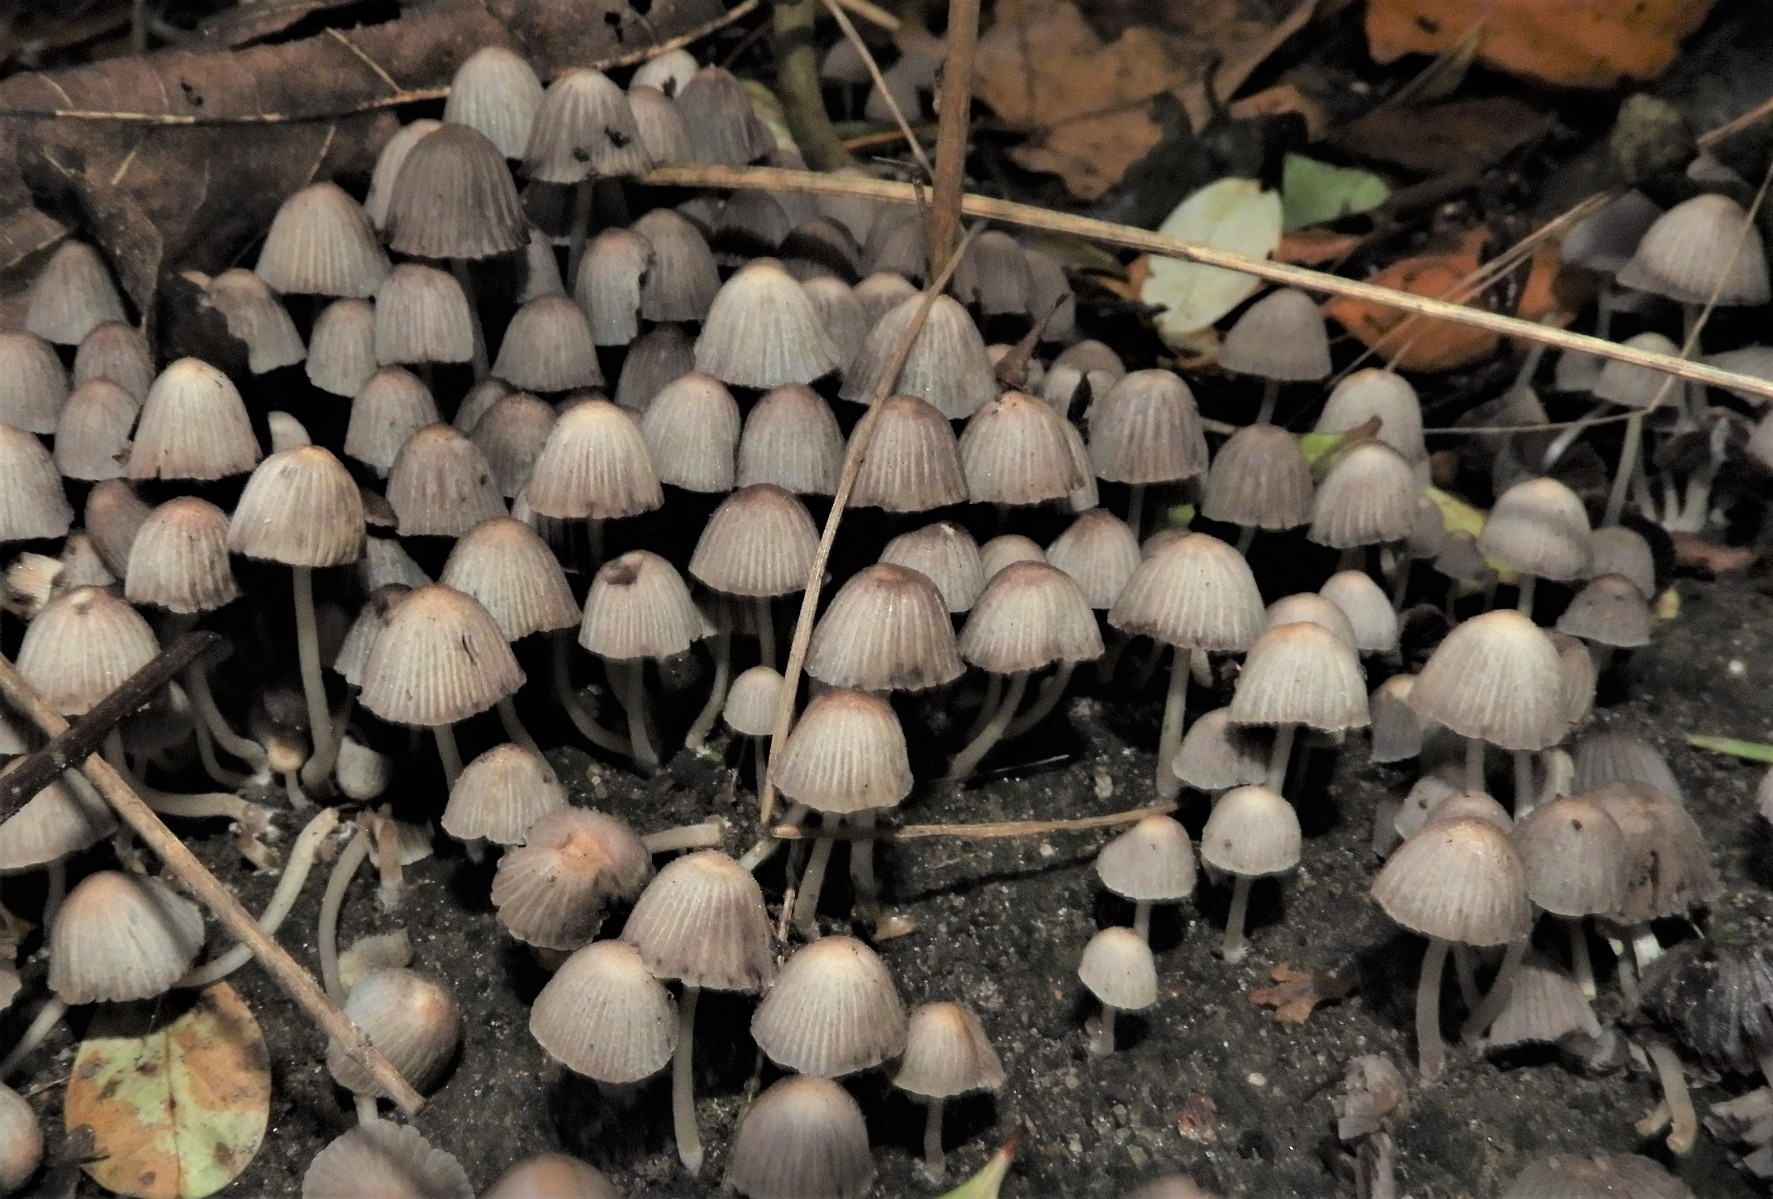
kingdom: Fungi
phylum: Basidiomycota
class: Agaricomycetes
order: Agaricales
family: Psathyrellaceae
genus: Coprinellus
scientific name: Coprinellus disseminatus
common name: bredsået blækhat
